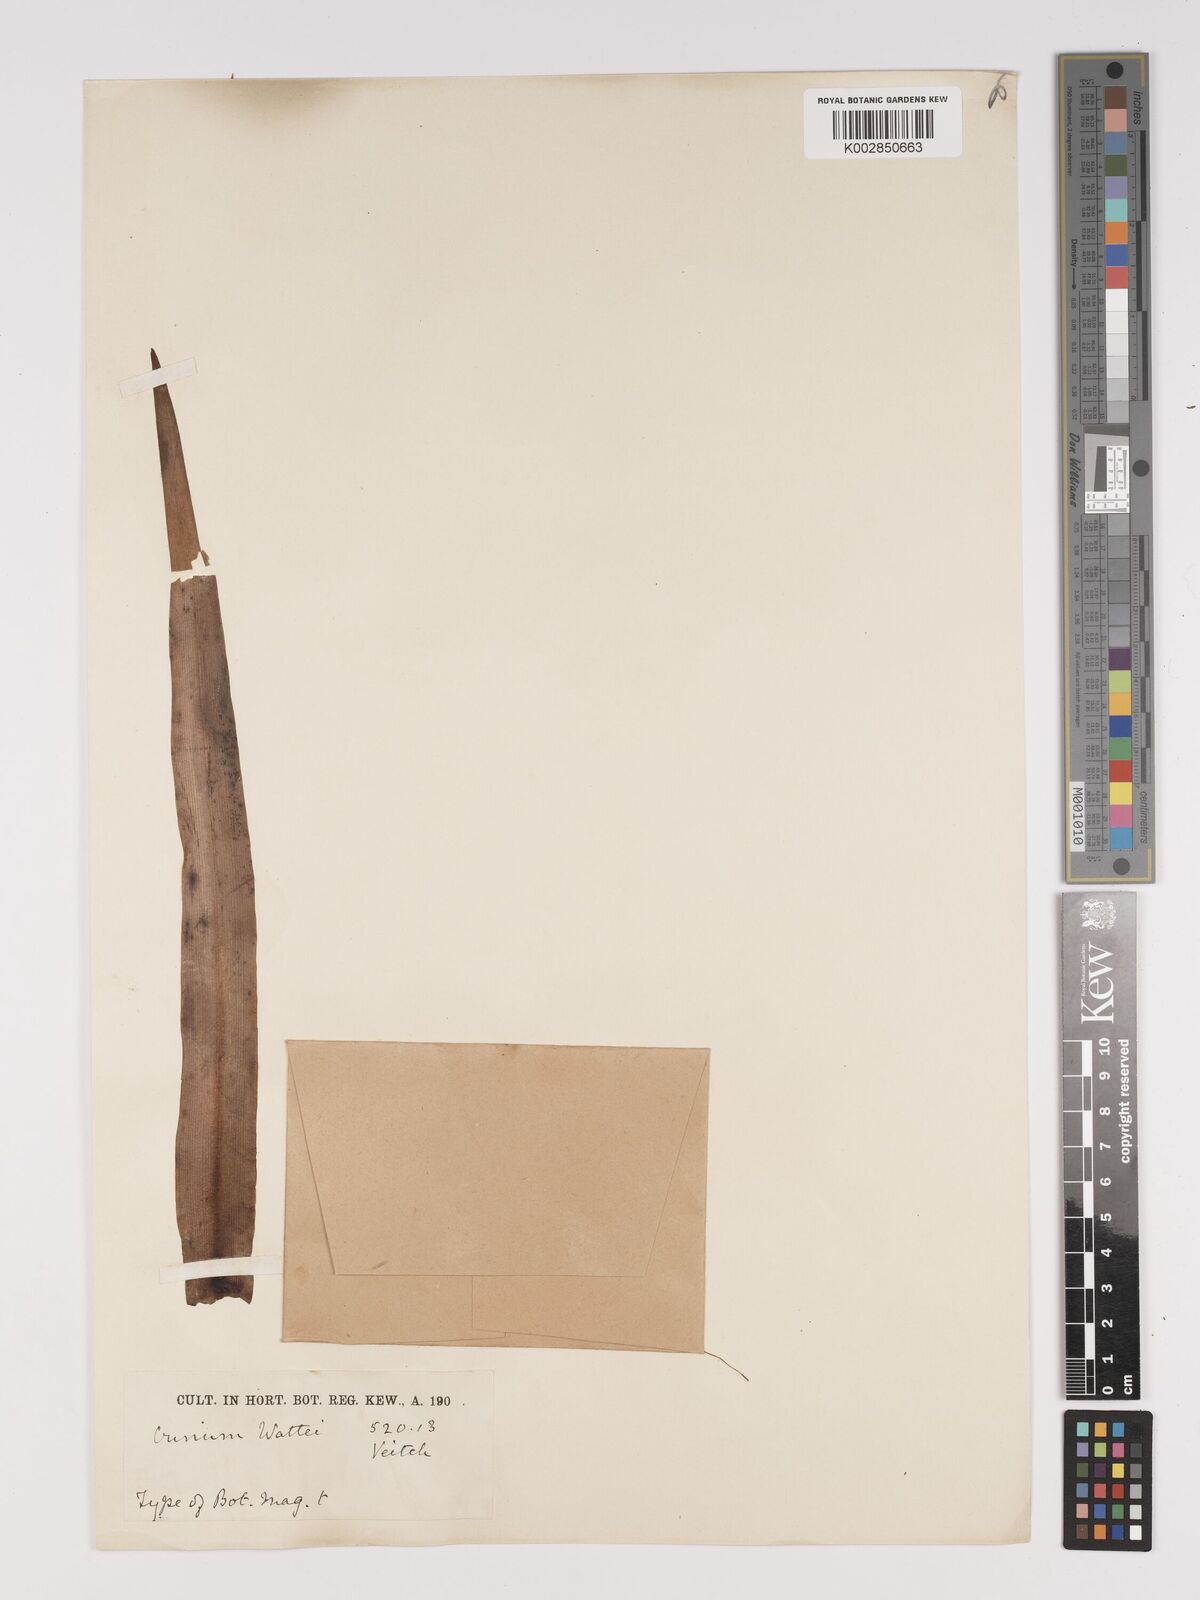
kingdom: Plantae
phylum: Tracheophyta
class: Liliopsida
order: Asparagales
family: Amaryllidaceae
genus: Crinum
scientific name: Crinum wattii
